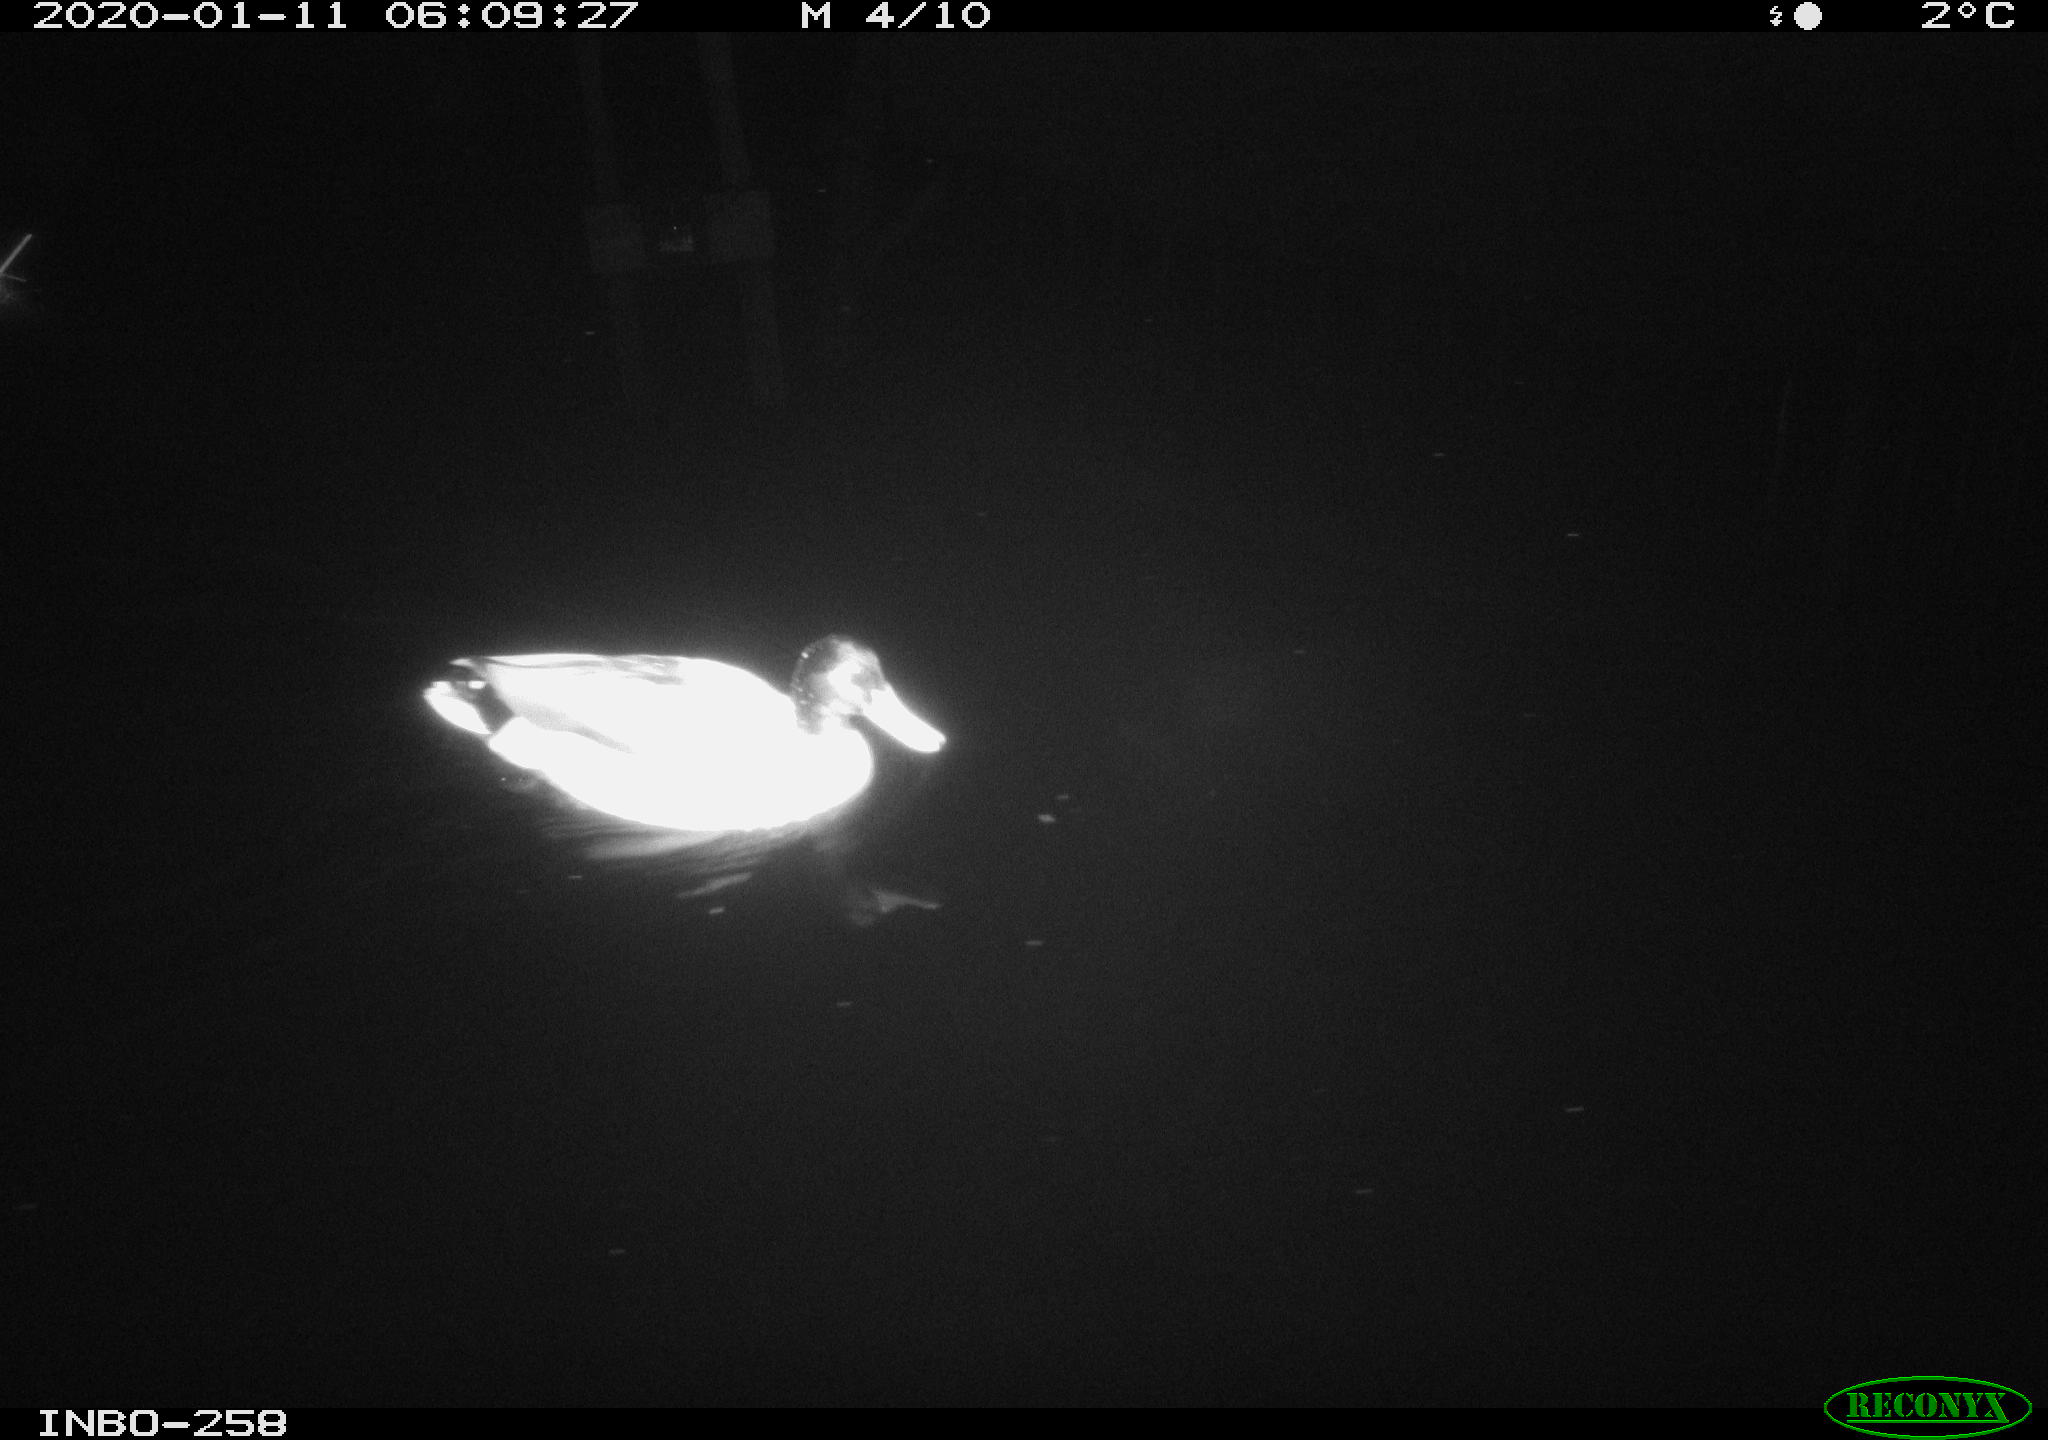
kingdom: Animalia
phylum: Chordata
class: Aves
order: Anseriformes
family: Anatidae
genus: Anas
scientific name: Anas platyrhynchos
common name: Mallard
